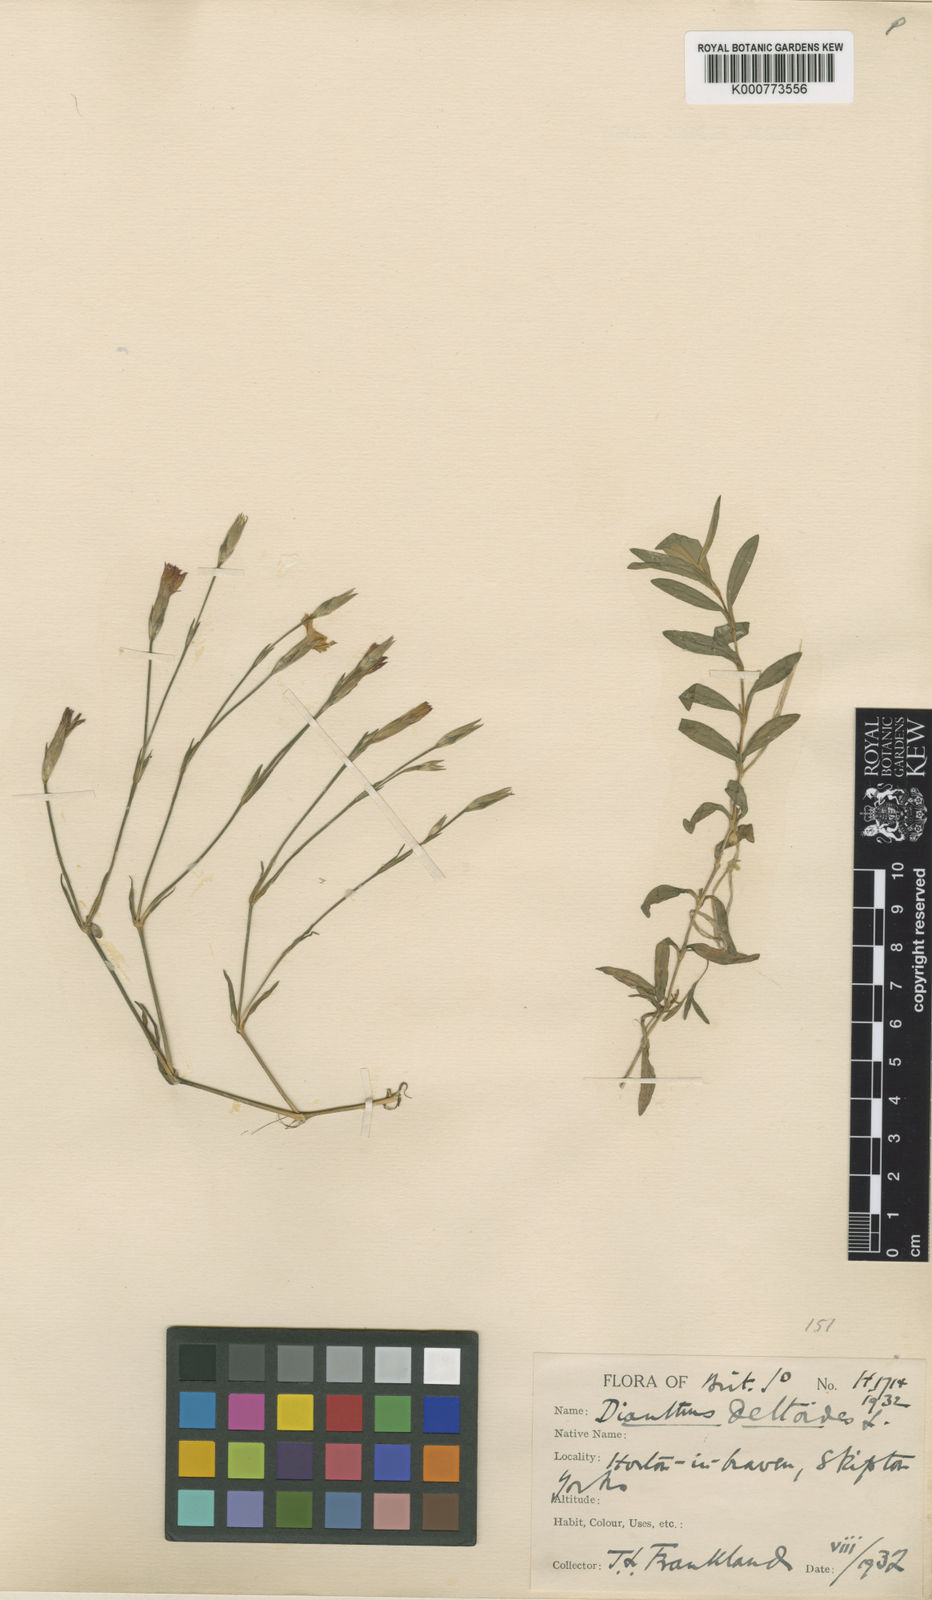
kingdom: Plantae
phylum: Tracheophyta
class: Magnoliopsida
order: Caryophyllales
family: Caryophyllaceae
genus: Dianthus
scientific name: Dianthus deltoides
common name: Maiden pink
